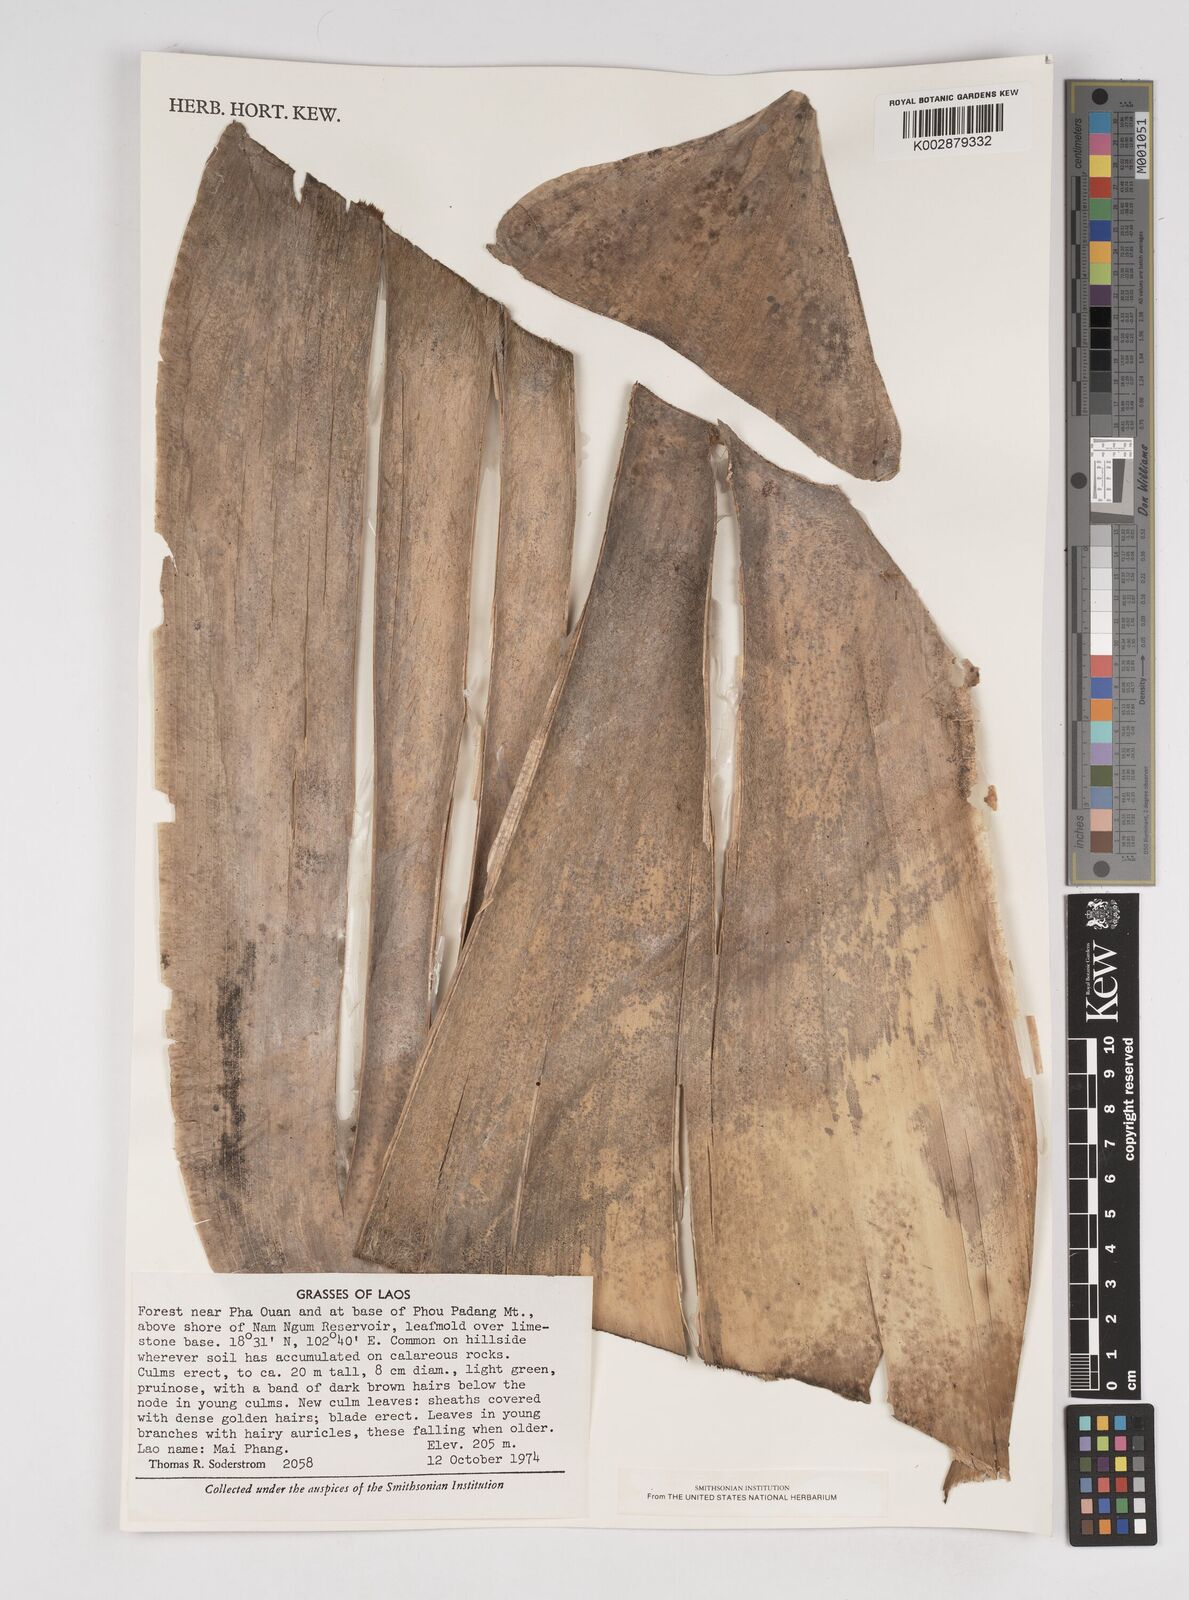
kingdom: Plantae
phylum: Tracheophyta
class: Liliopsida
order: Poales
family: Poaceae
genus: Dendrocalamus
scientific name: Dendrocalamus
